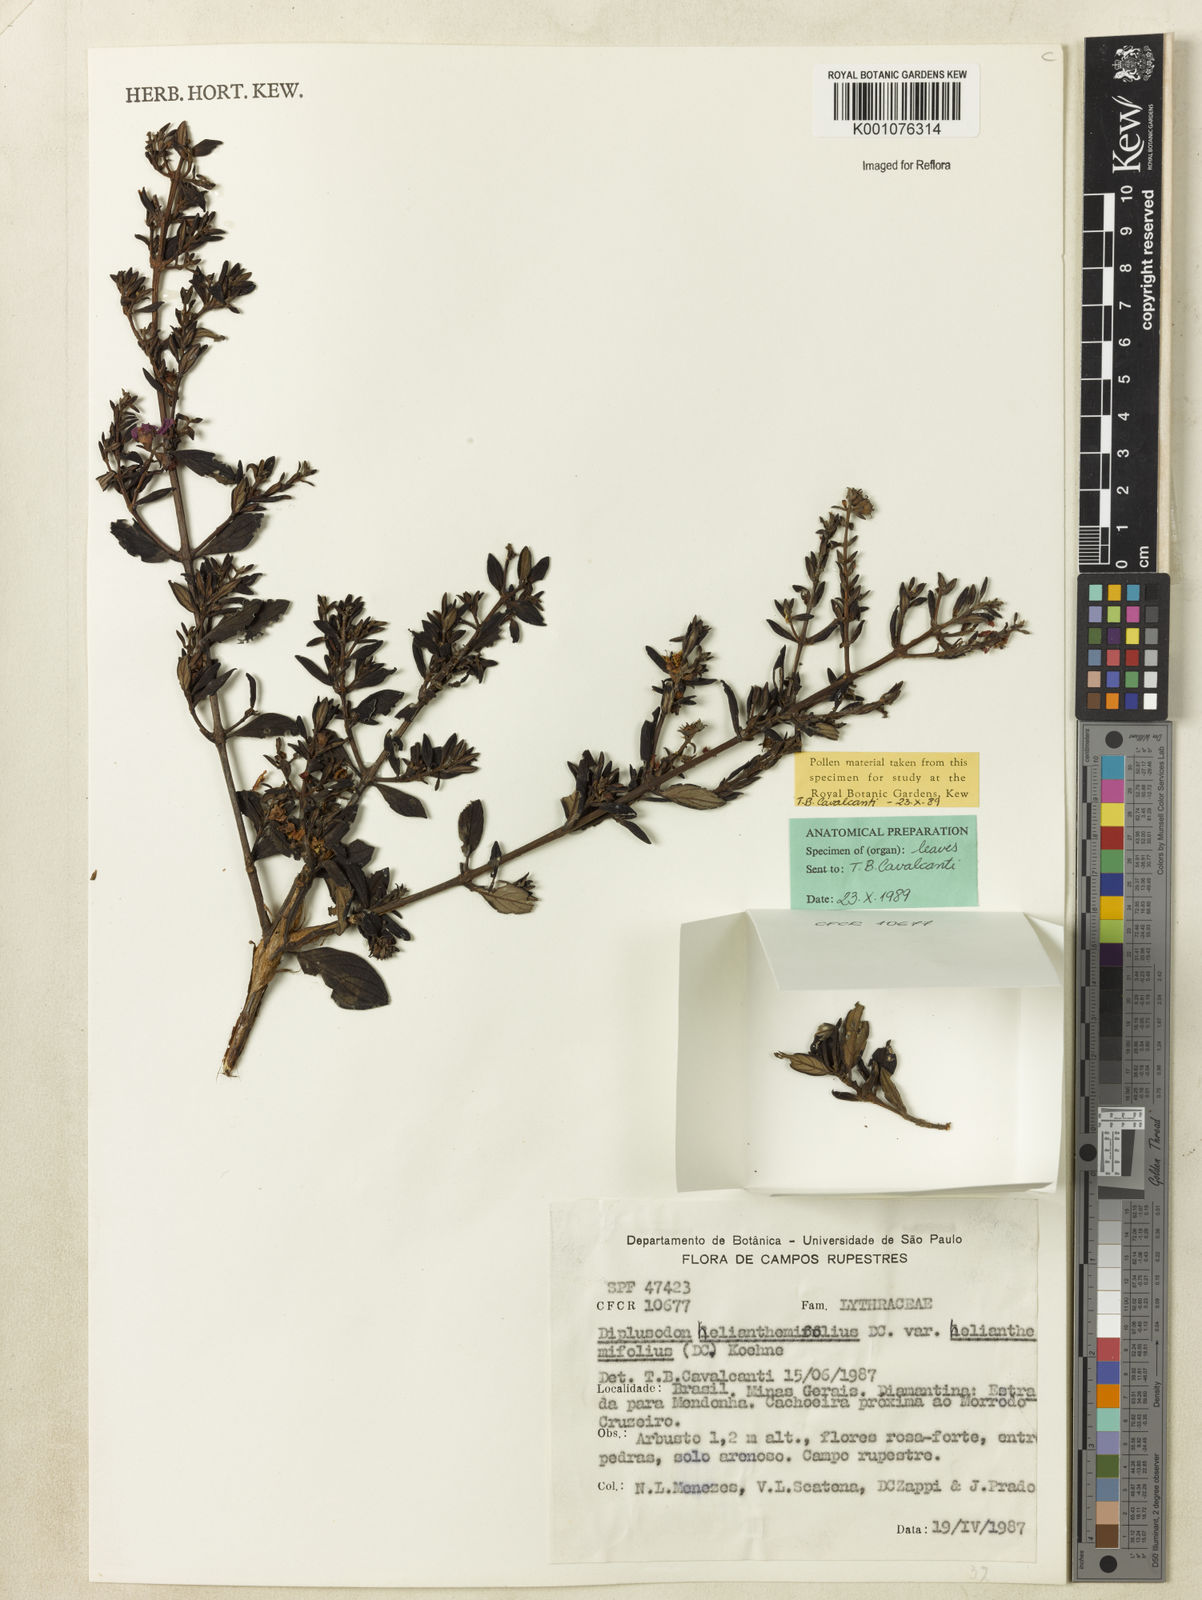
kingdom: Plantae
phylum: Tracheophyta
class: Magnoliopsida
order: Myrtales
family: Lythraceae
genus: Diplusodon
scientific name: Diplusodon helianthemifolius
